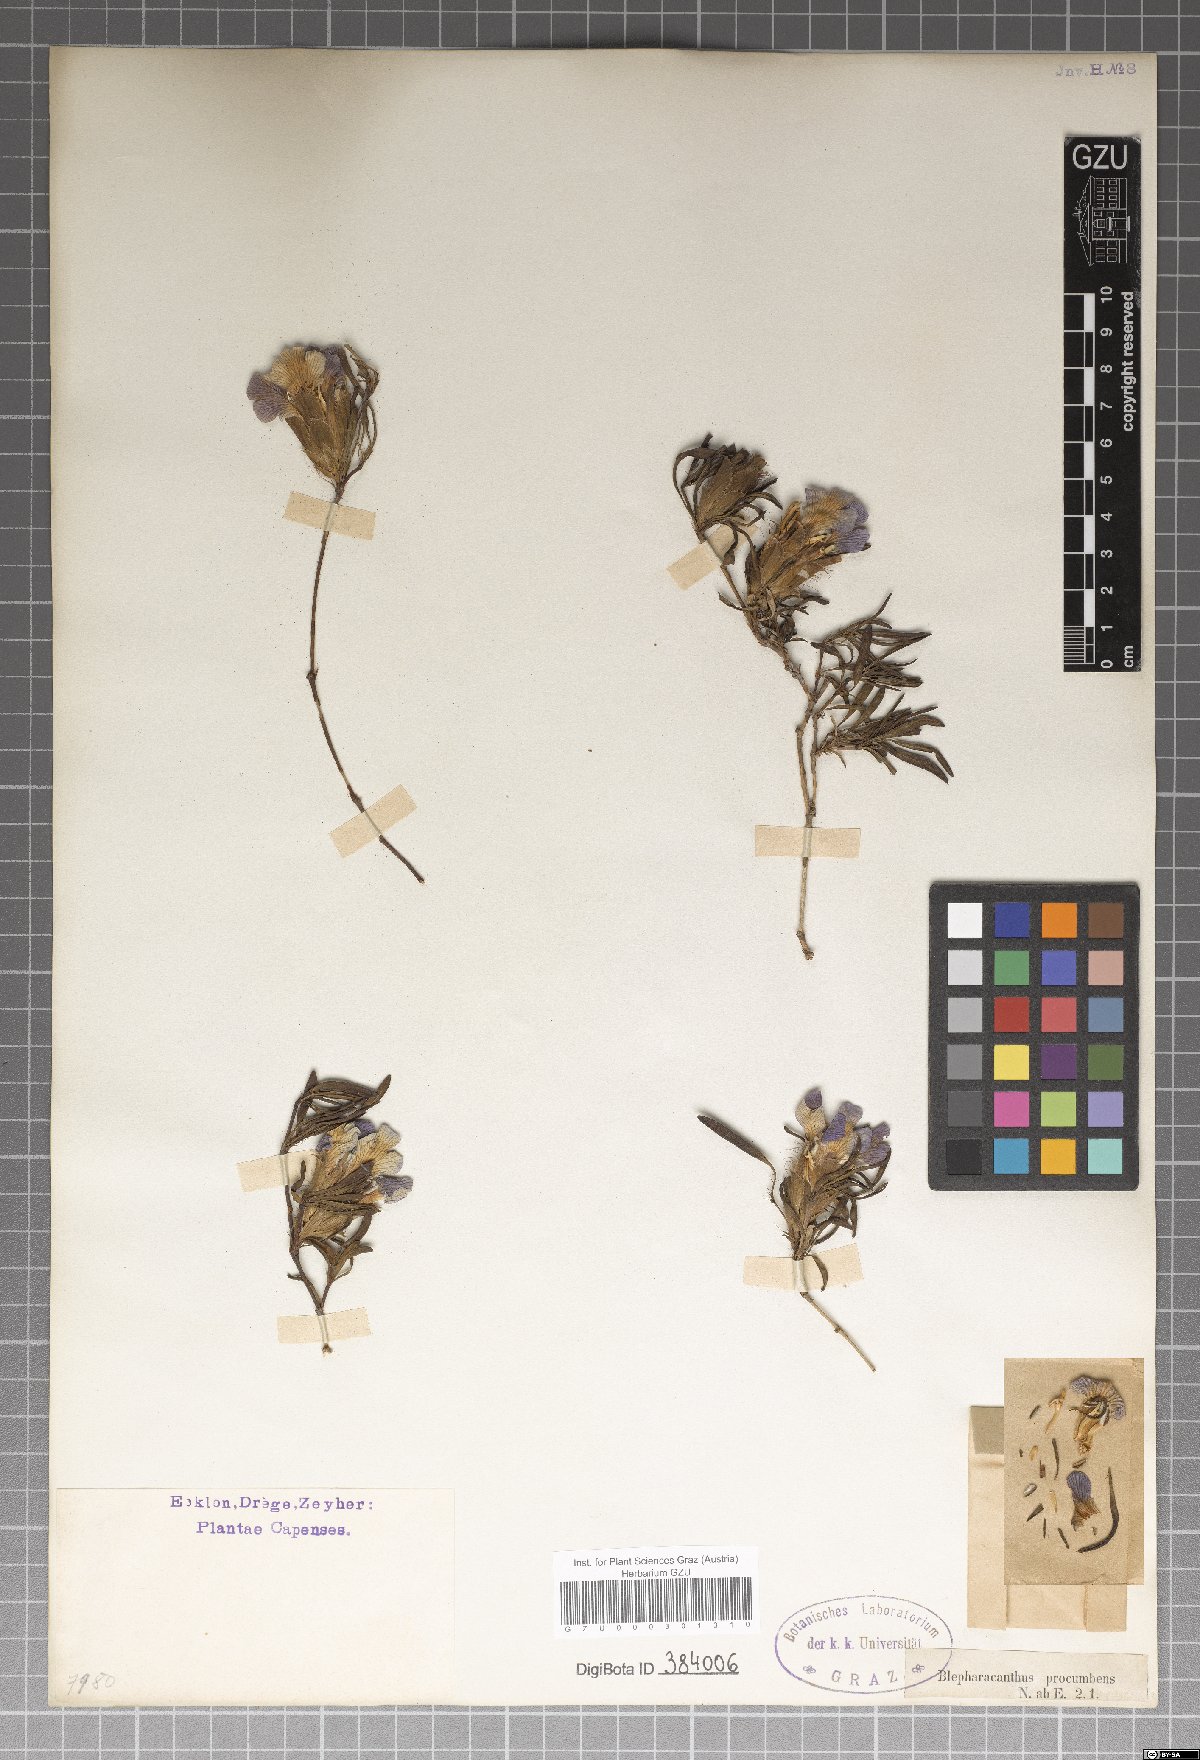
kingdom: Plantae
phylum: Tracheophyta
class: Magnoliopsida
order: Lamiales
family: Acanthaceae
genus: Blepharis
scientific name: Blepharis procumbens
